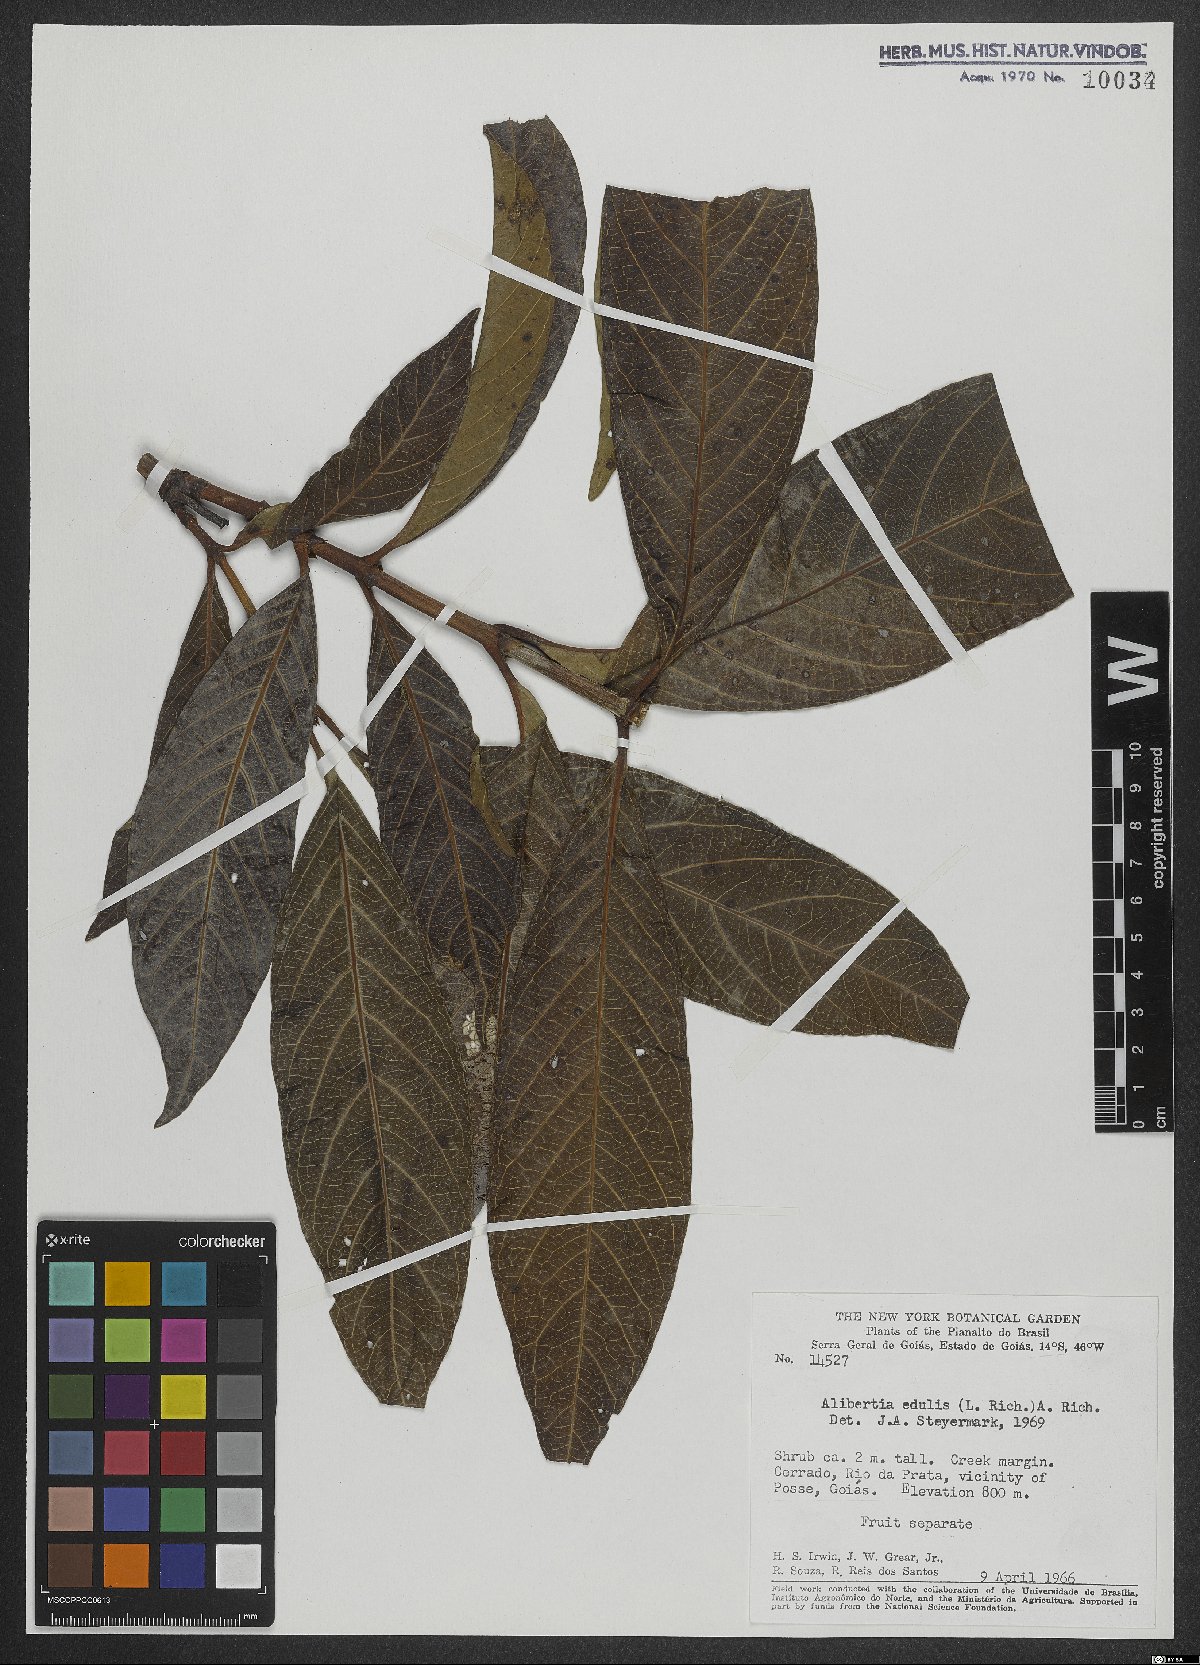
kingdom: Plantae
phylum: Tracheophyta
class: Magnoliopsida
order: Gentianales
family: Rubiaceae
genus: Alibertia
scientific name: Alibertia edulis
